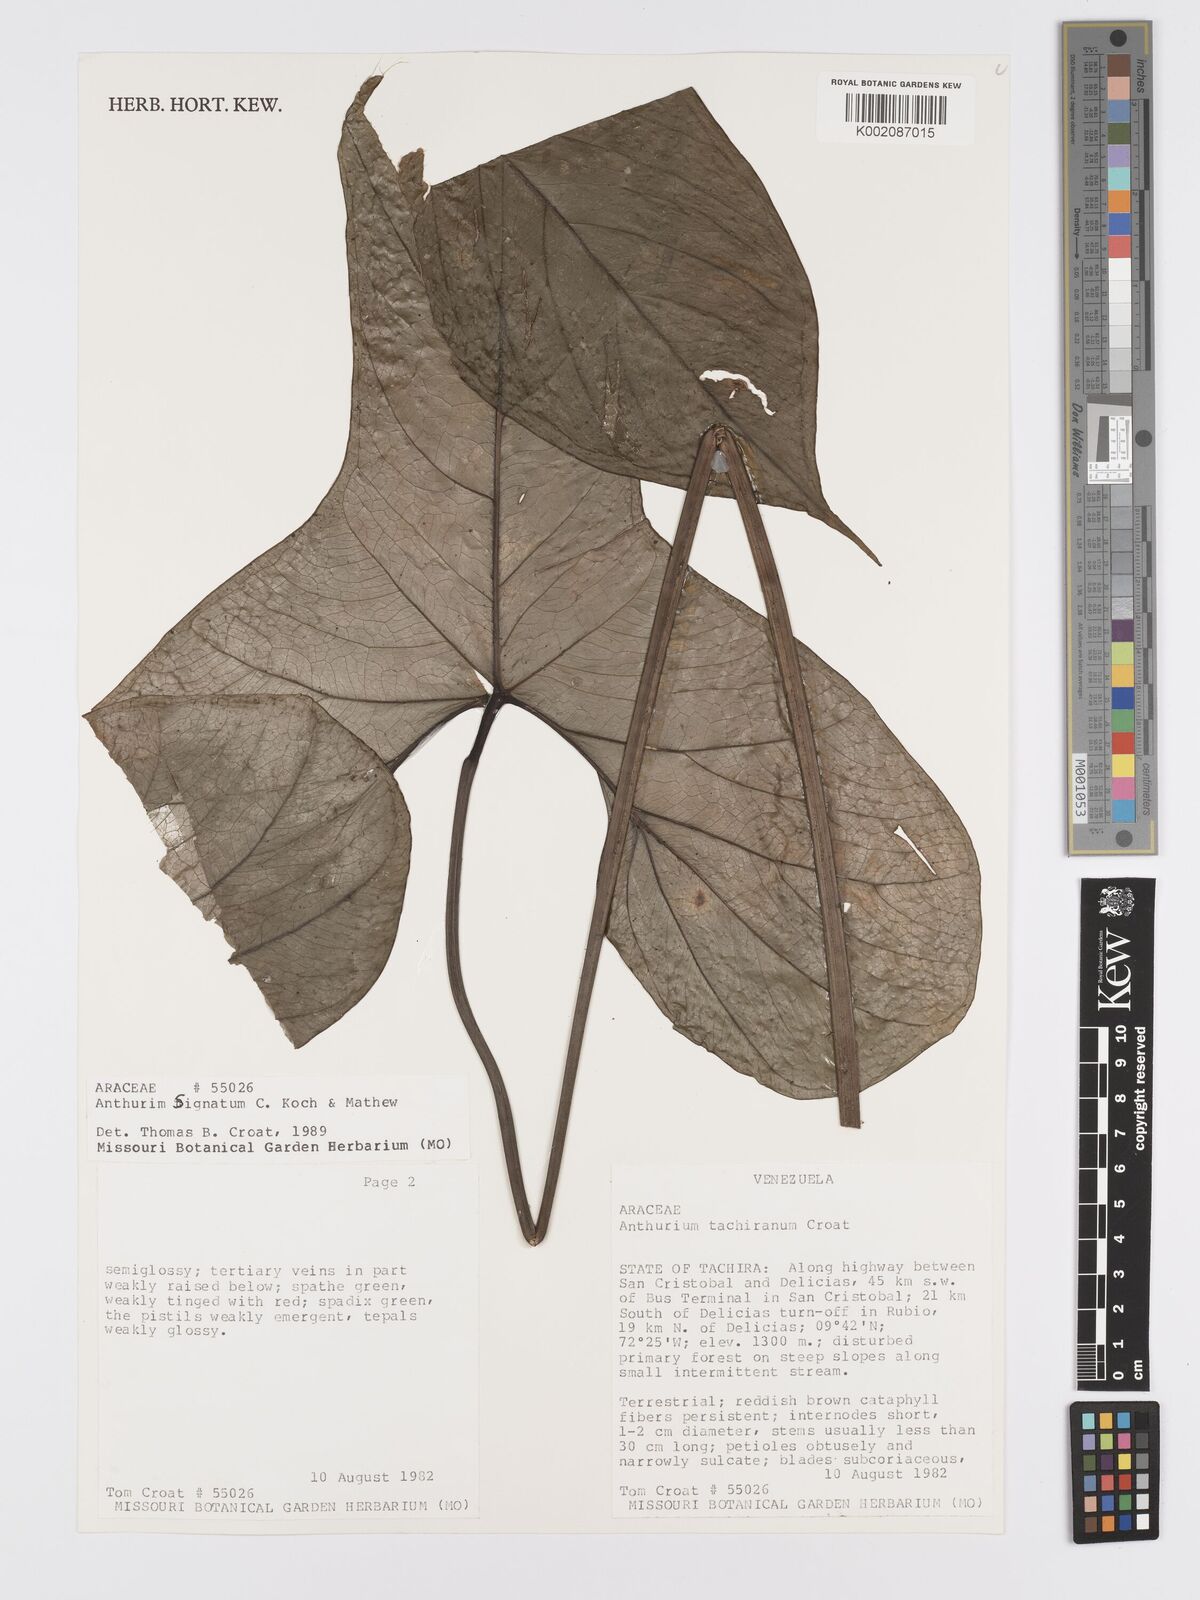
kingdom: Plantae
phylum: Tracheophyta
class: Liliopsida
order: Alismatales
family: Araceae
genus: Anthurium
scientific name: Anthurium signatum
